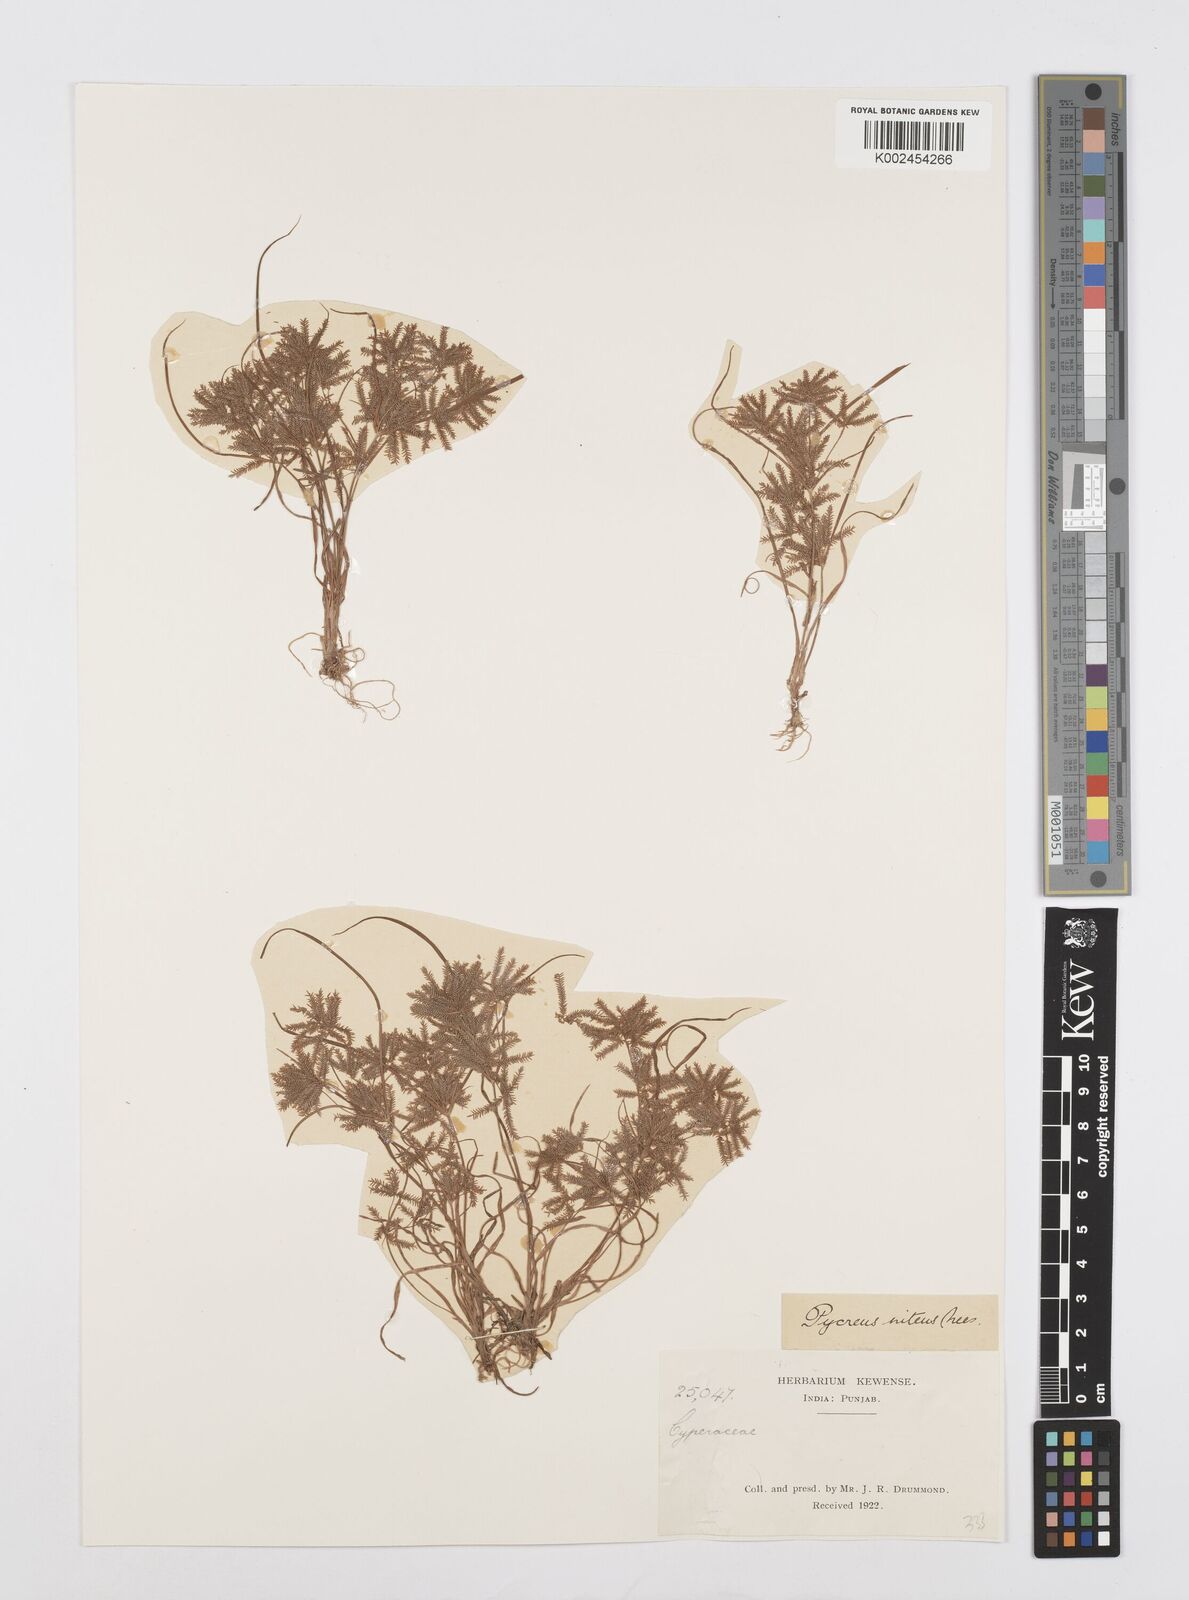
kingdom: Plantae
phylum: Tracheophyta
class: Liliopsida
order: Poales
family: Cyperaceae
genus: Cyperus
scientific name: Cyperus pumilus
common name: Low flatsedge
